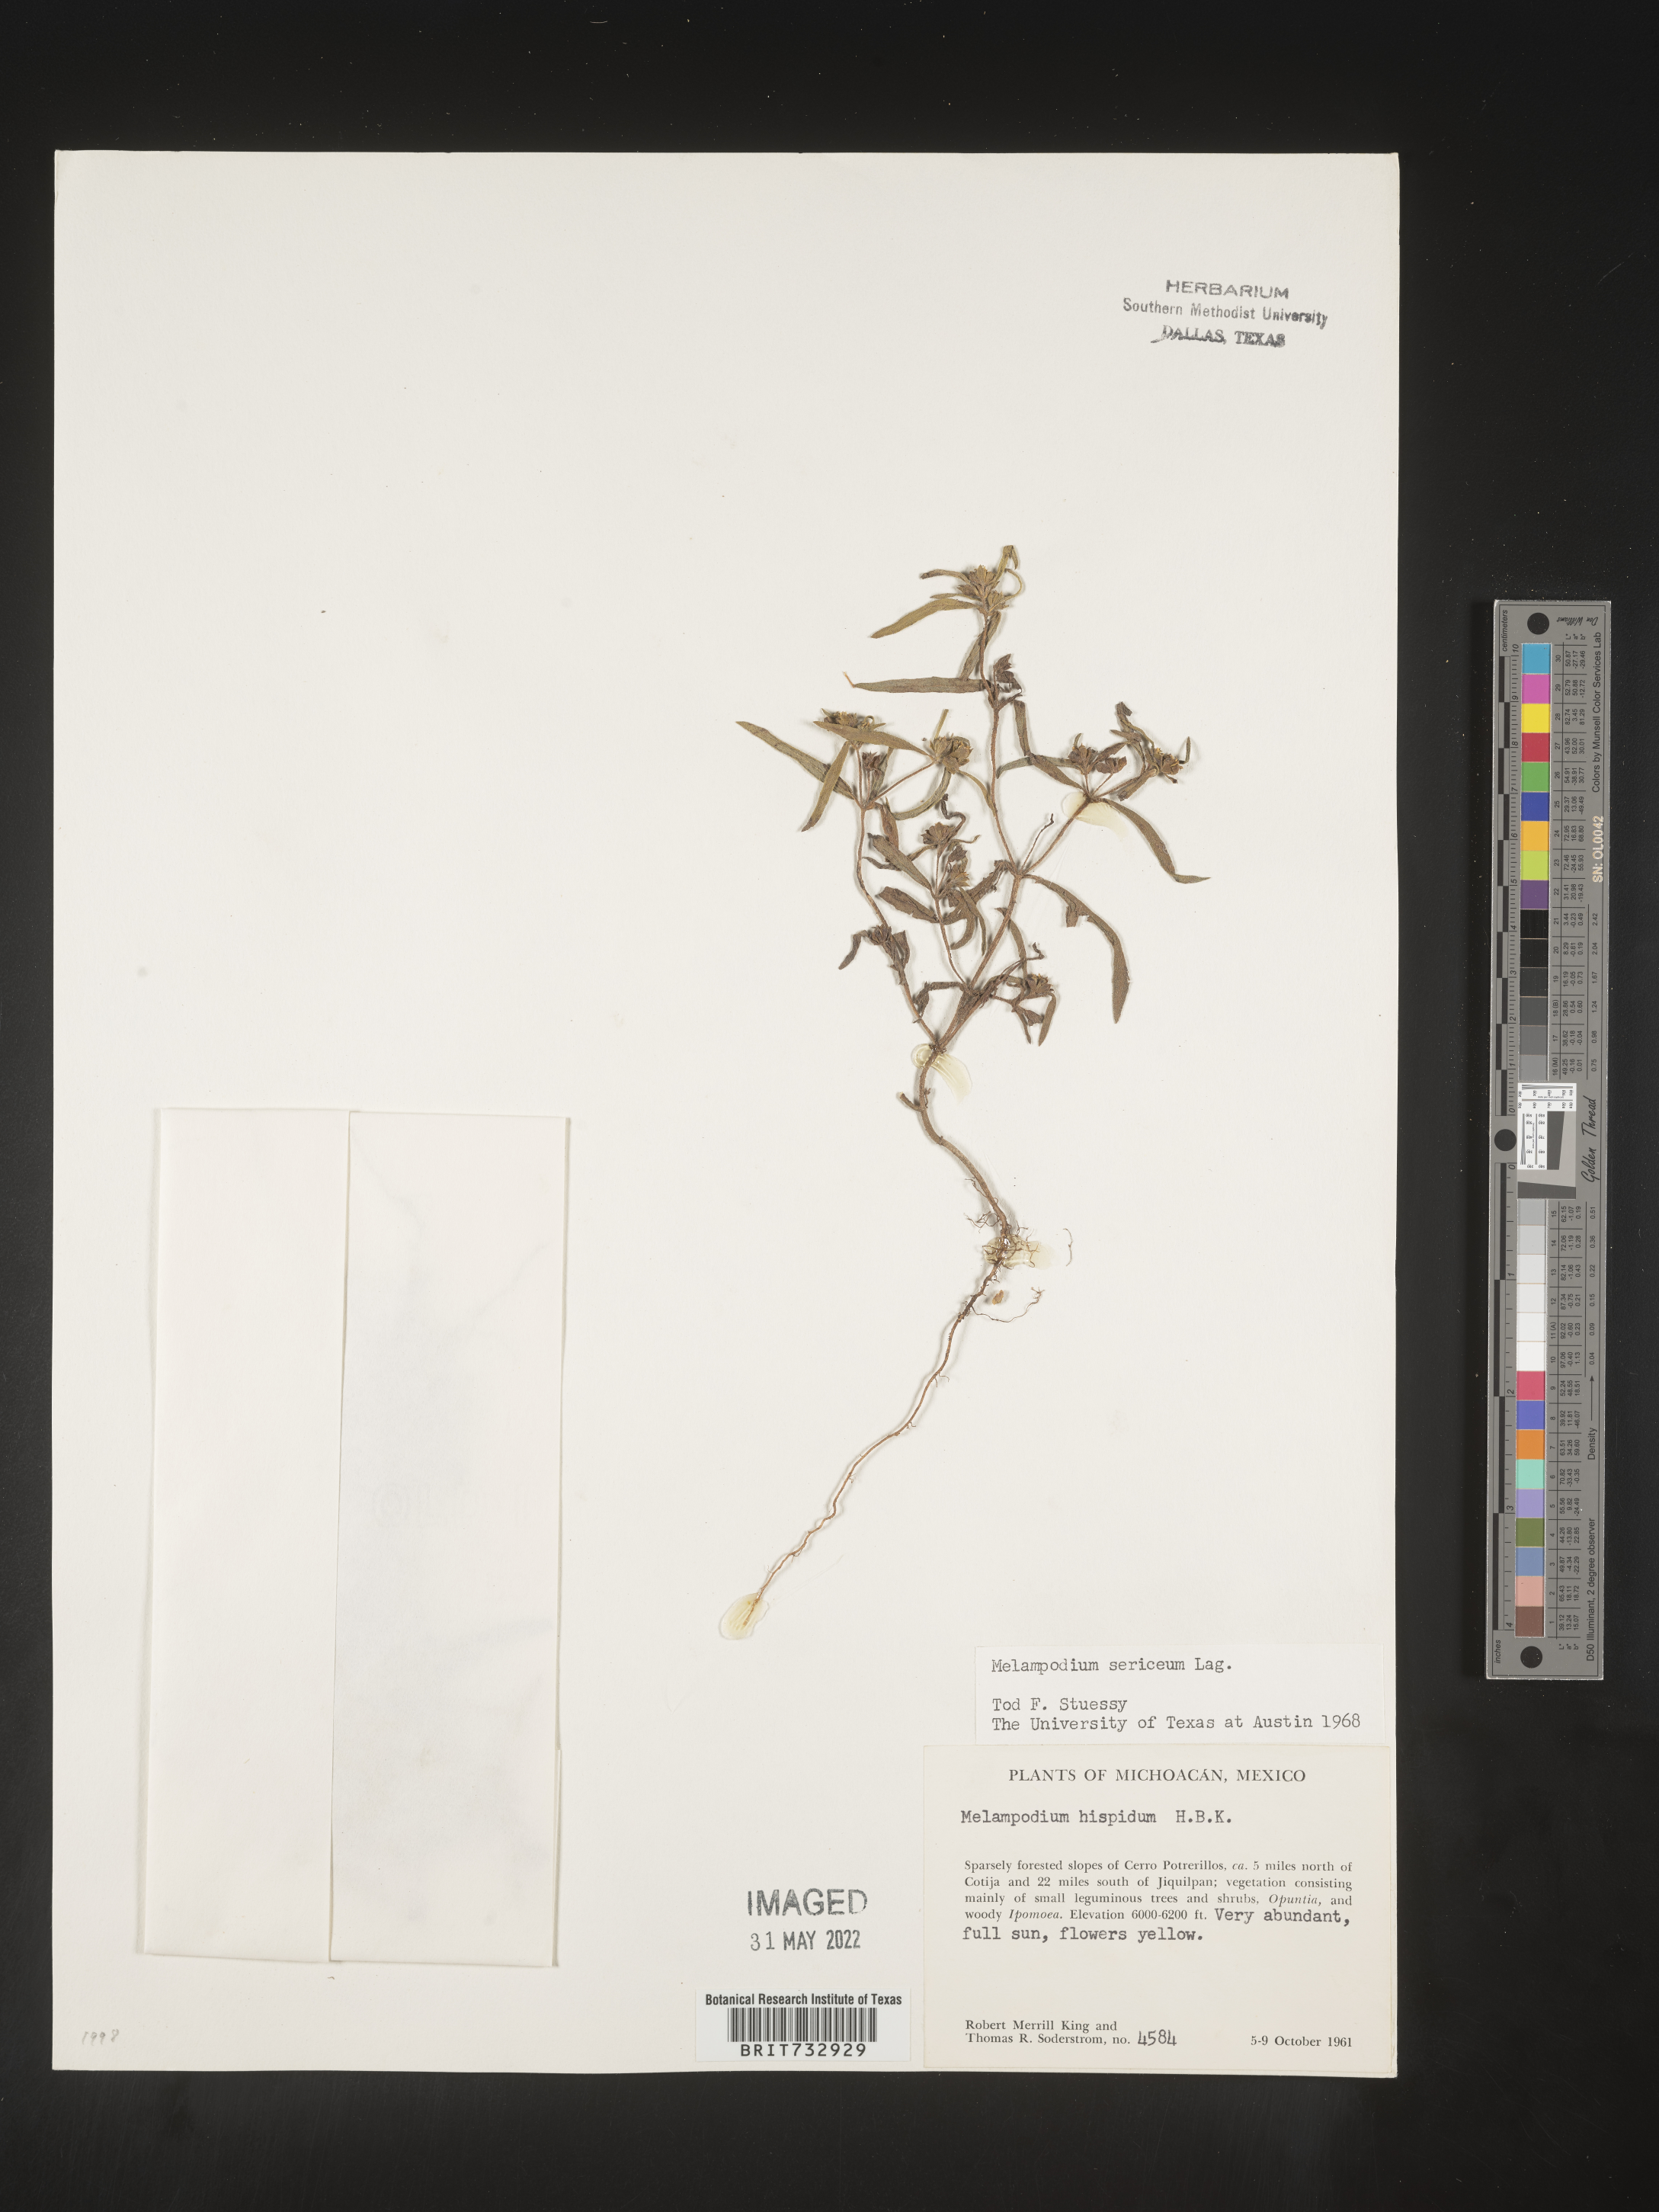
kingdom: Plantae
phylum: Tracheophyta
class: Magnoliopsida
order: Asterales
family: Asteraceae
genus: Melampodium
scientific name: Melampodium
